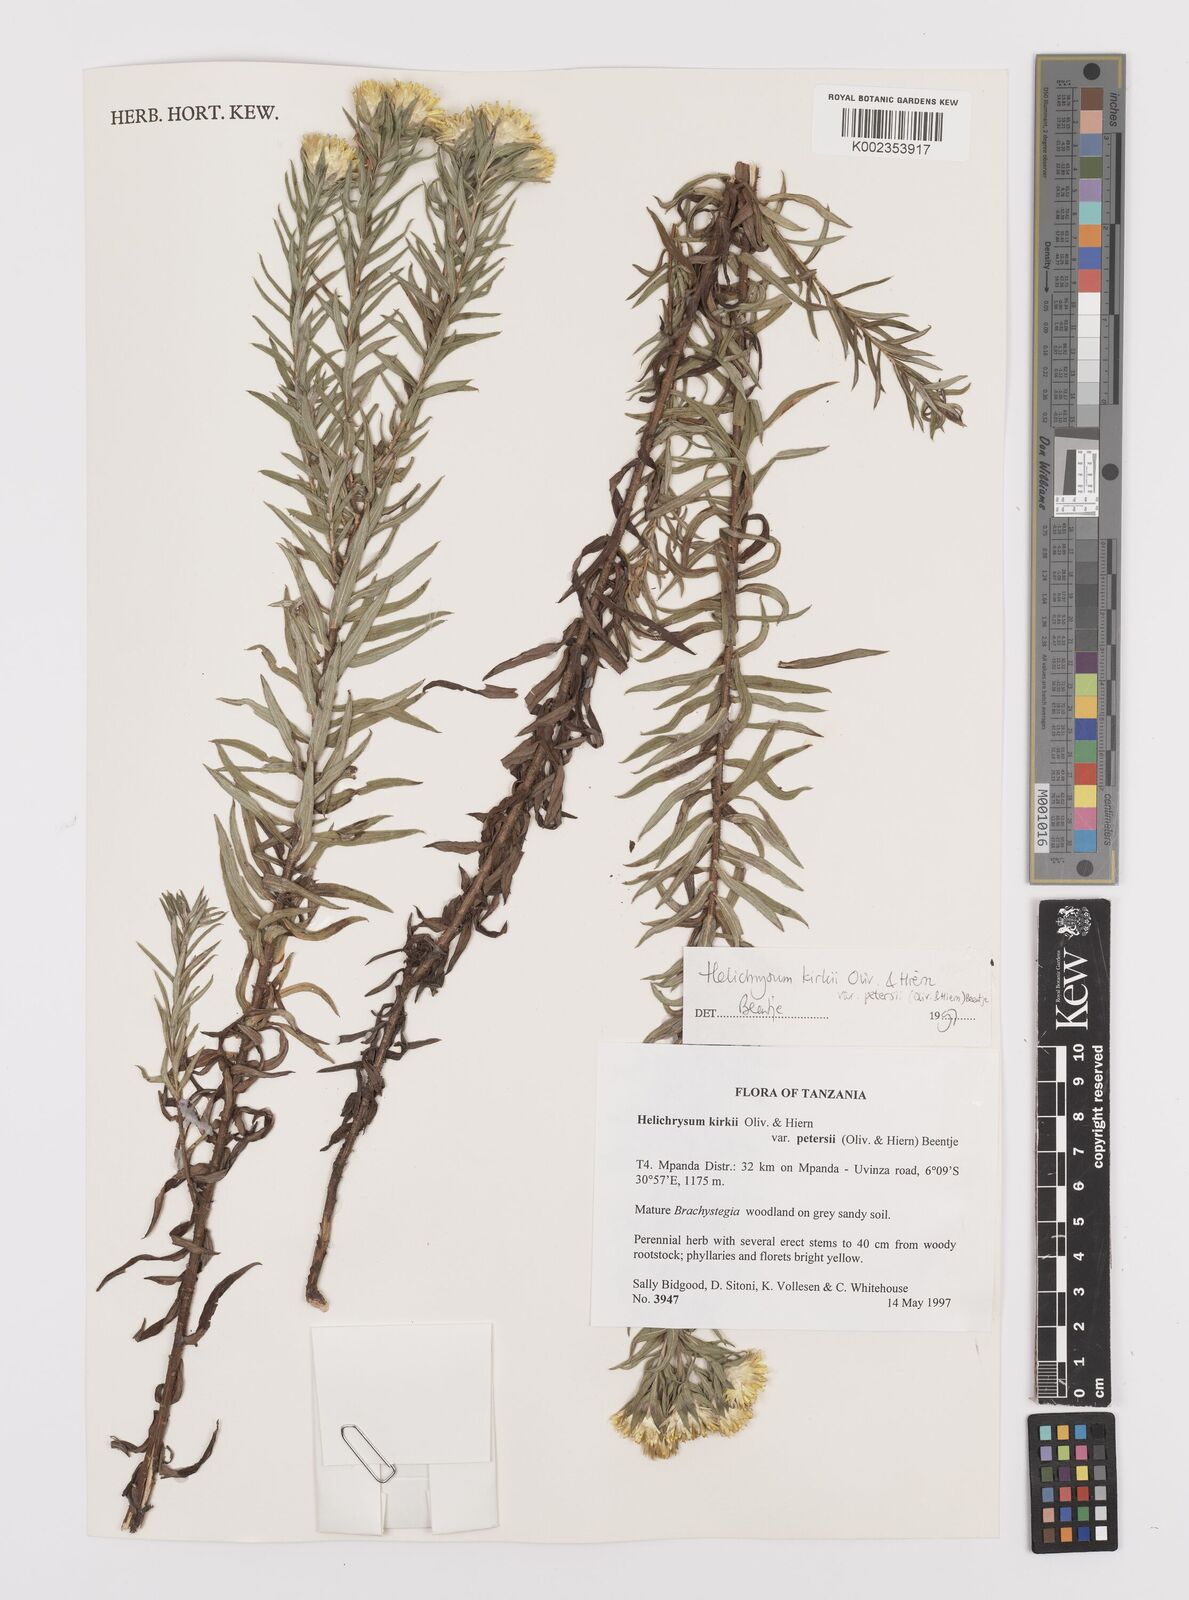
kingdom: Plantae
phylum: Tracheophyta
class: Magnoliopsida
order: Asterales
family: Asteraceae
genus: Helichrysum
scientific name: Helichrysum kirkii
